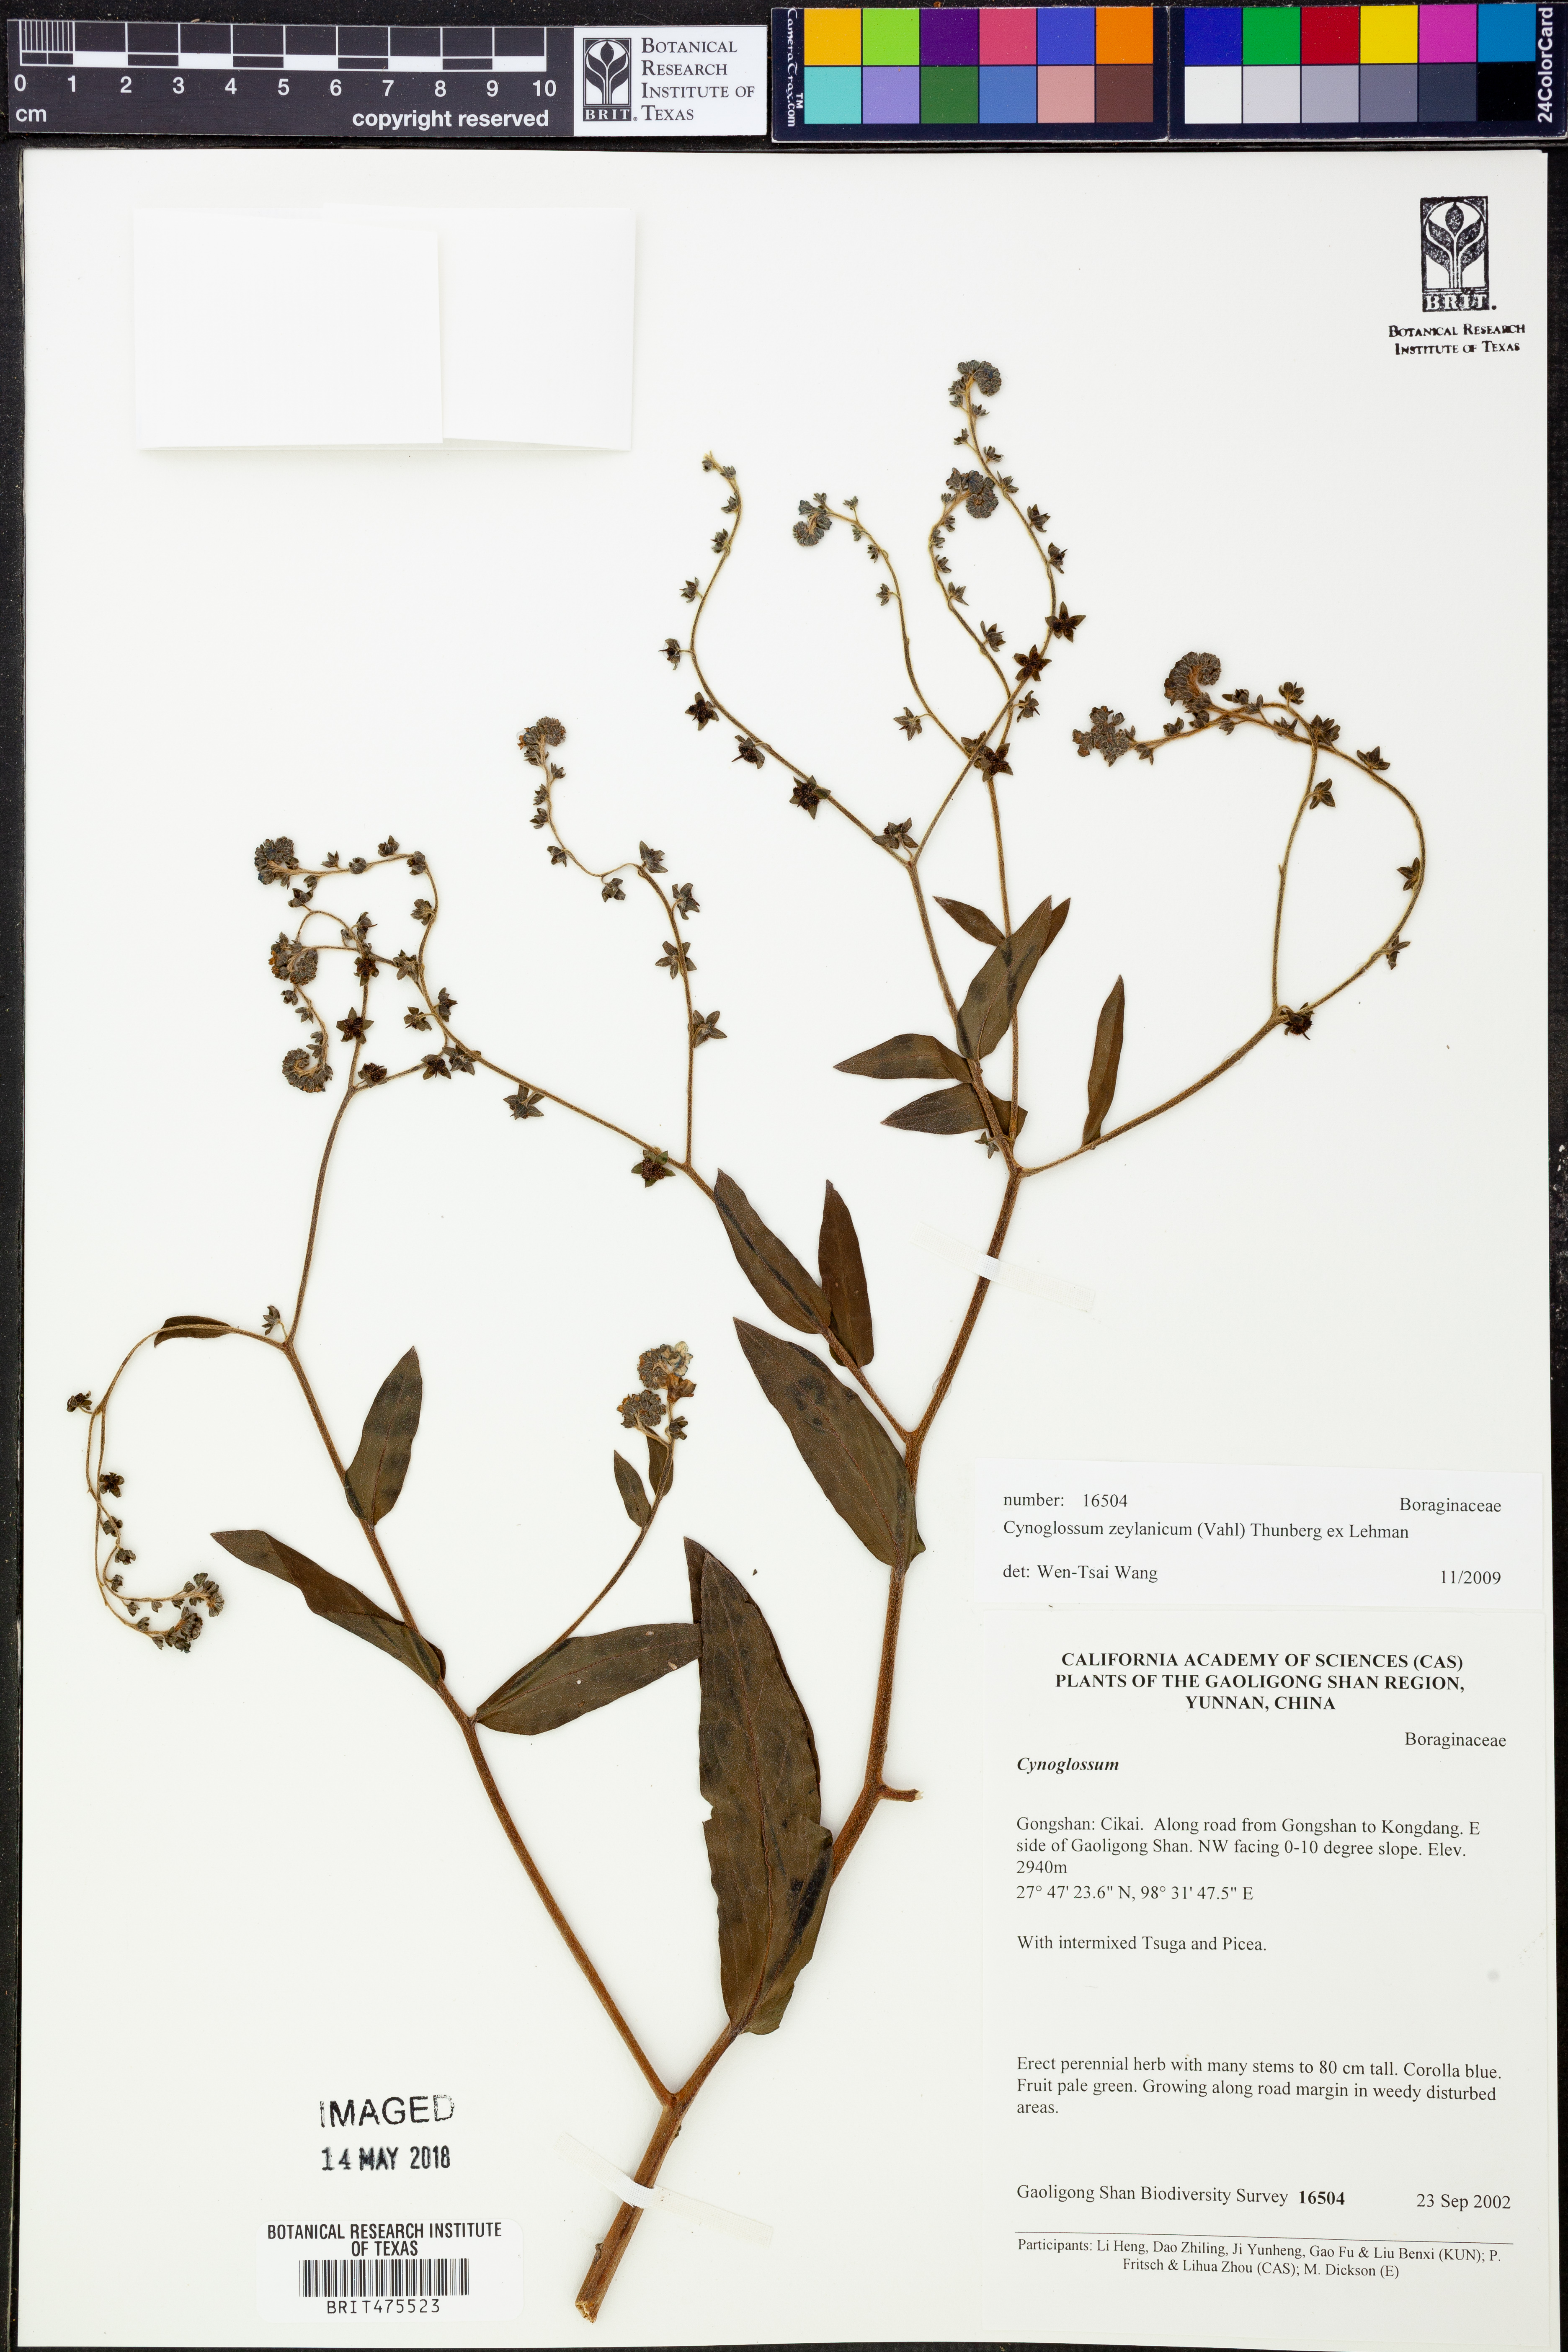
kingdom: Plantae
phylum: Tracheophyta
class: Magnoliopsida
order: Boraginales
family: Boraginaceae
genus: Cynoglossum
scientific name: Cynoglossum zeylanicum
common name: Ceylon hound's tongue
